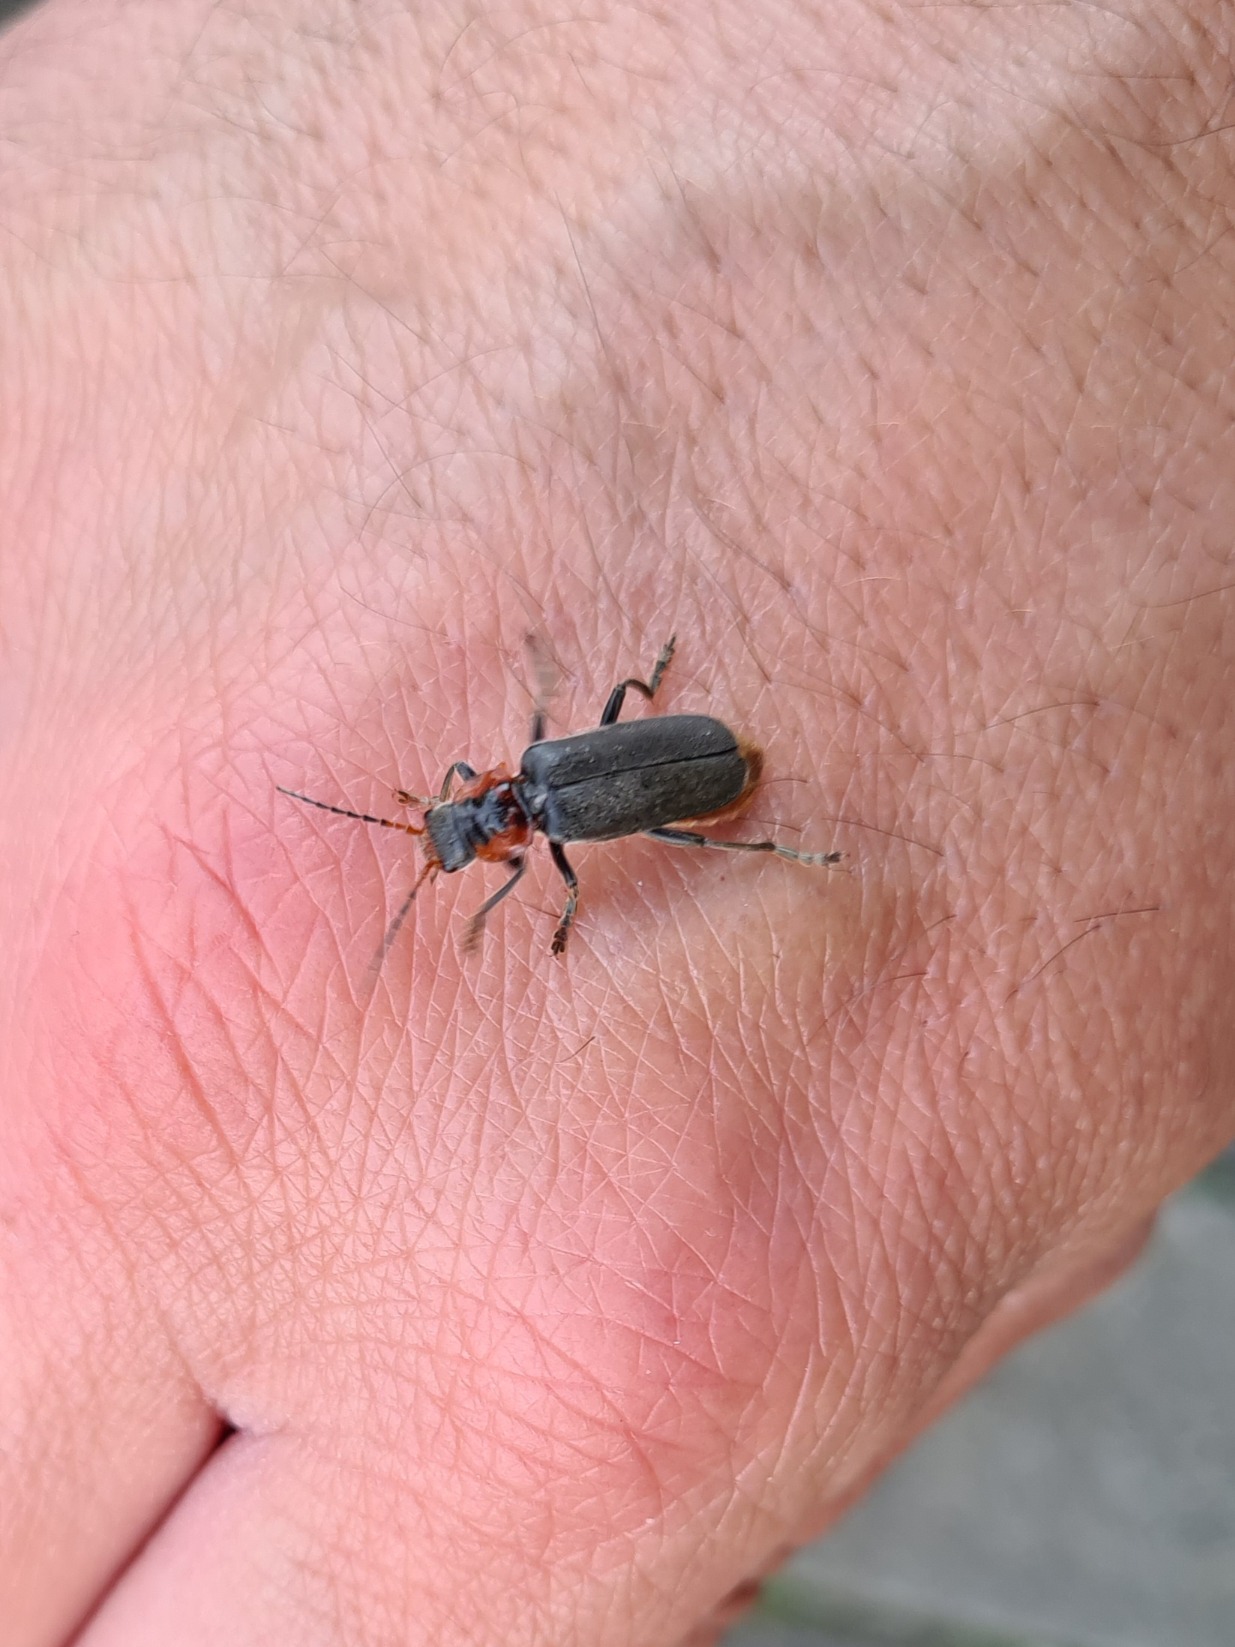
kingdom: Animalia
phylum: Arthropoda
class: Insecta
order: Coleoptera
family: Cantharidae
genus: Cantharis
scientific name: Cantharis fusca
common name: Stor blødvinge
